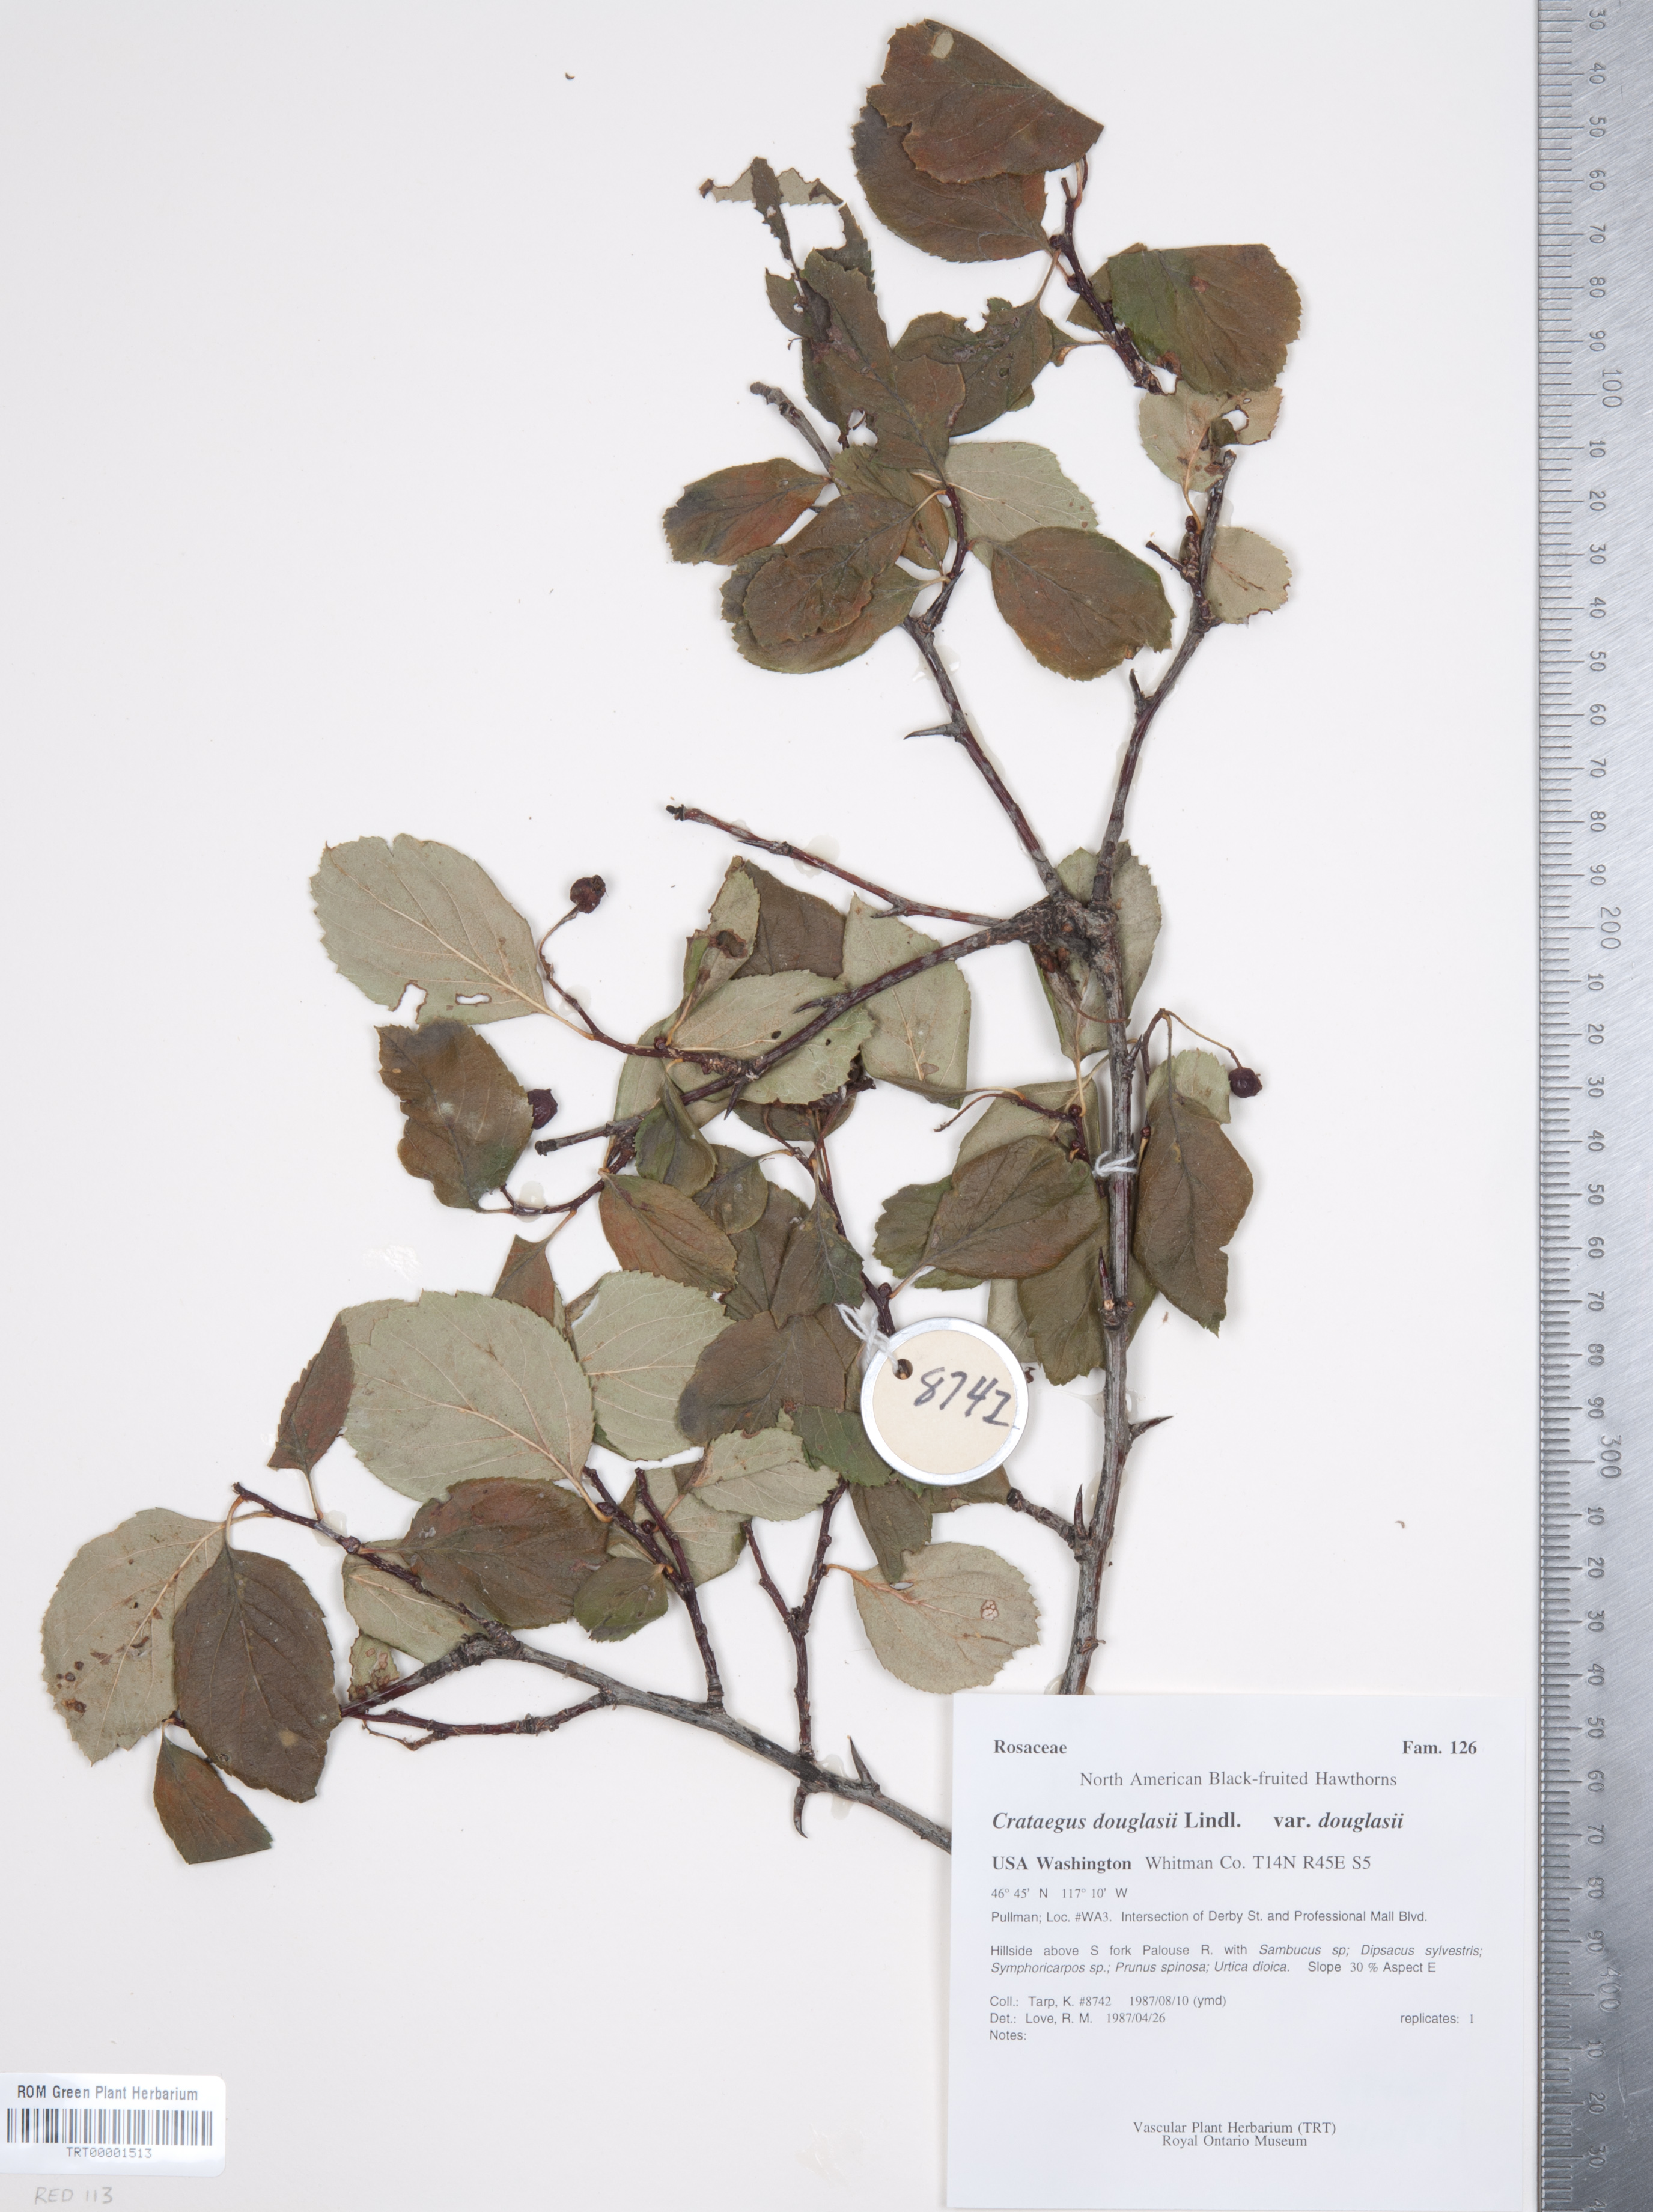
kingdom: Plantae
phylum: Tracheophyta
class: Magnoliopsida
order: Rosales
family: Rosaceae
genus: Crataegus
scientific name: Crataegus douglasii
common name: Black hawthorn
